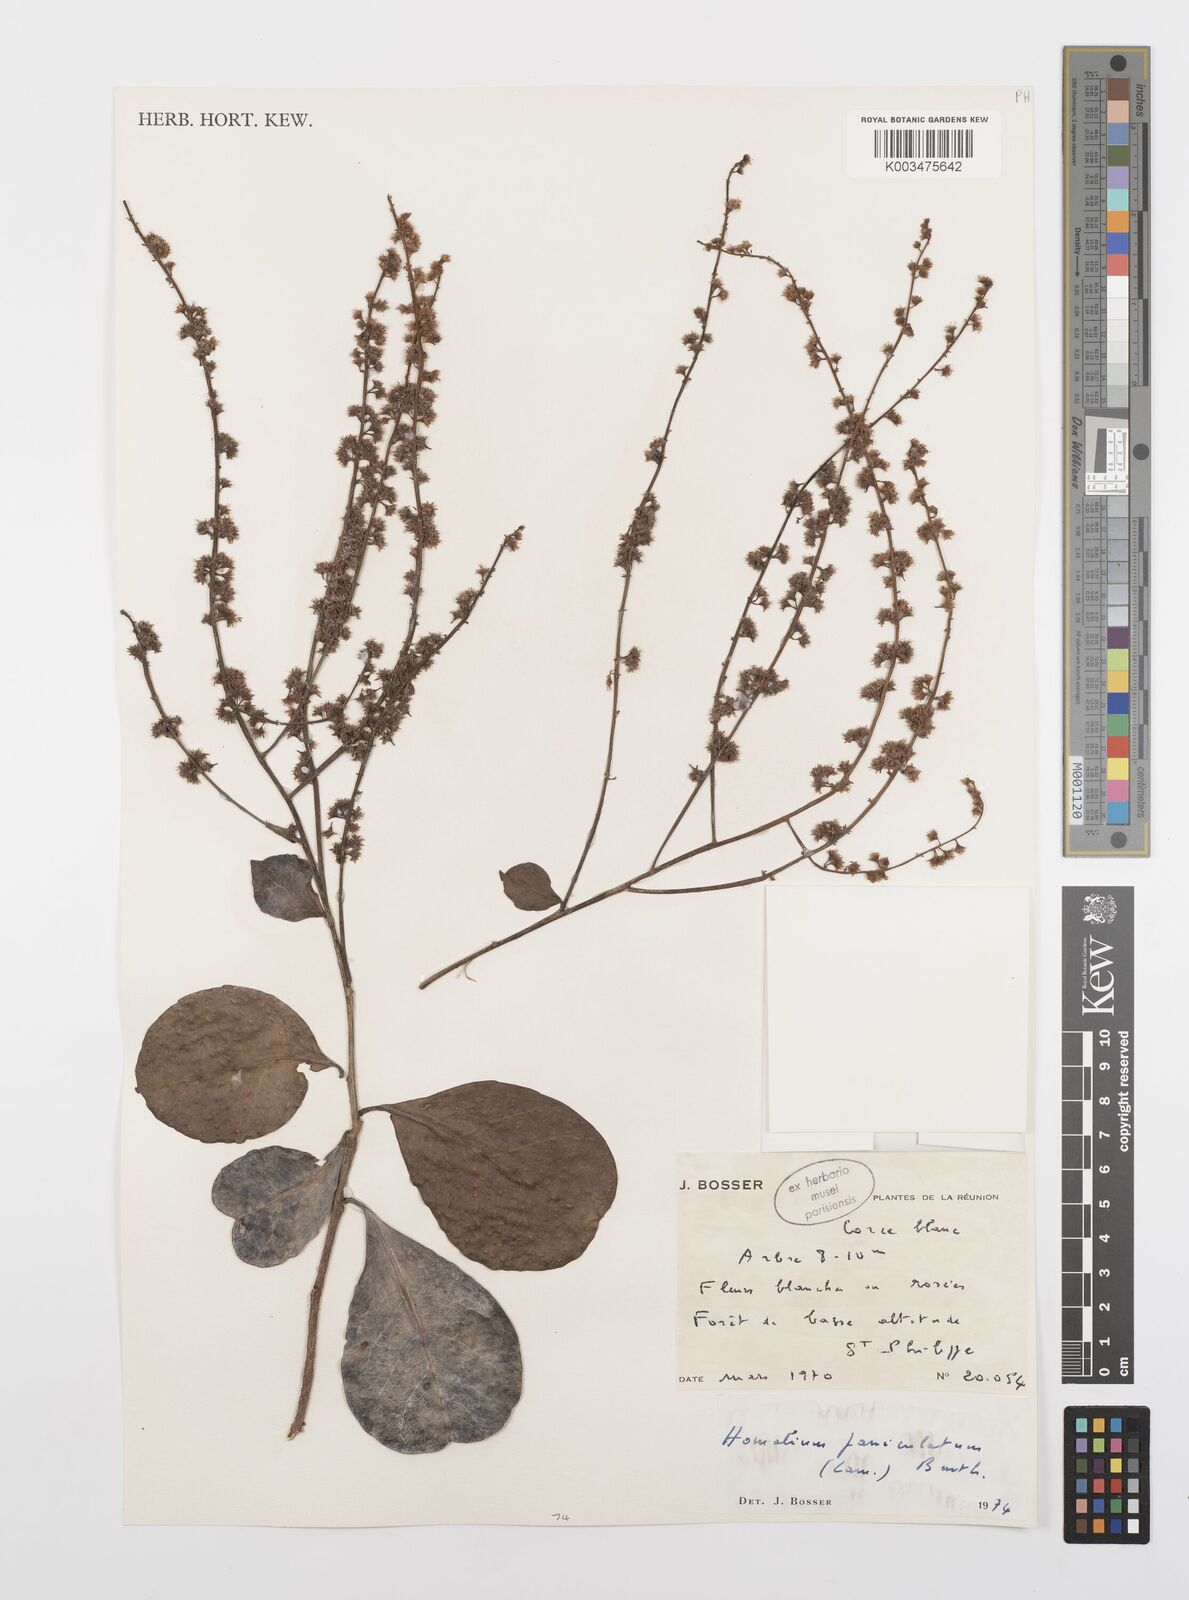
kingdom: Plantae
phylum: Tracheophyta
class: Magnoliopsida
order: Malpighiales
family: Salicaceae
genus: Homalium
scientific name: Homalium erianthum
